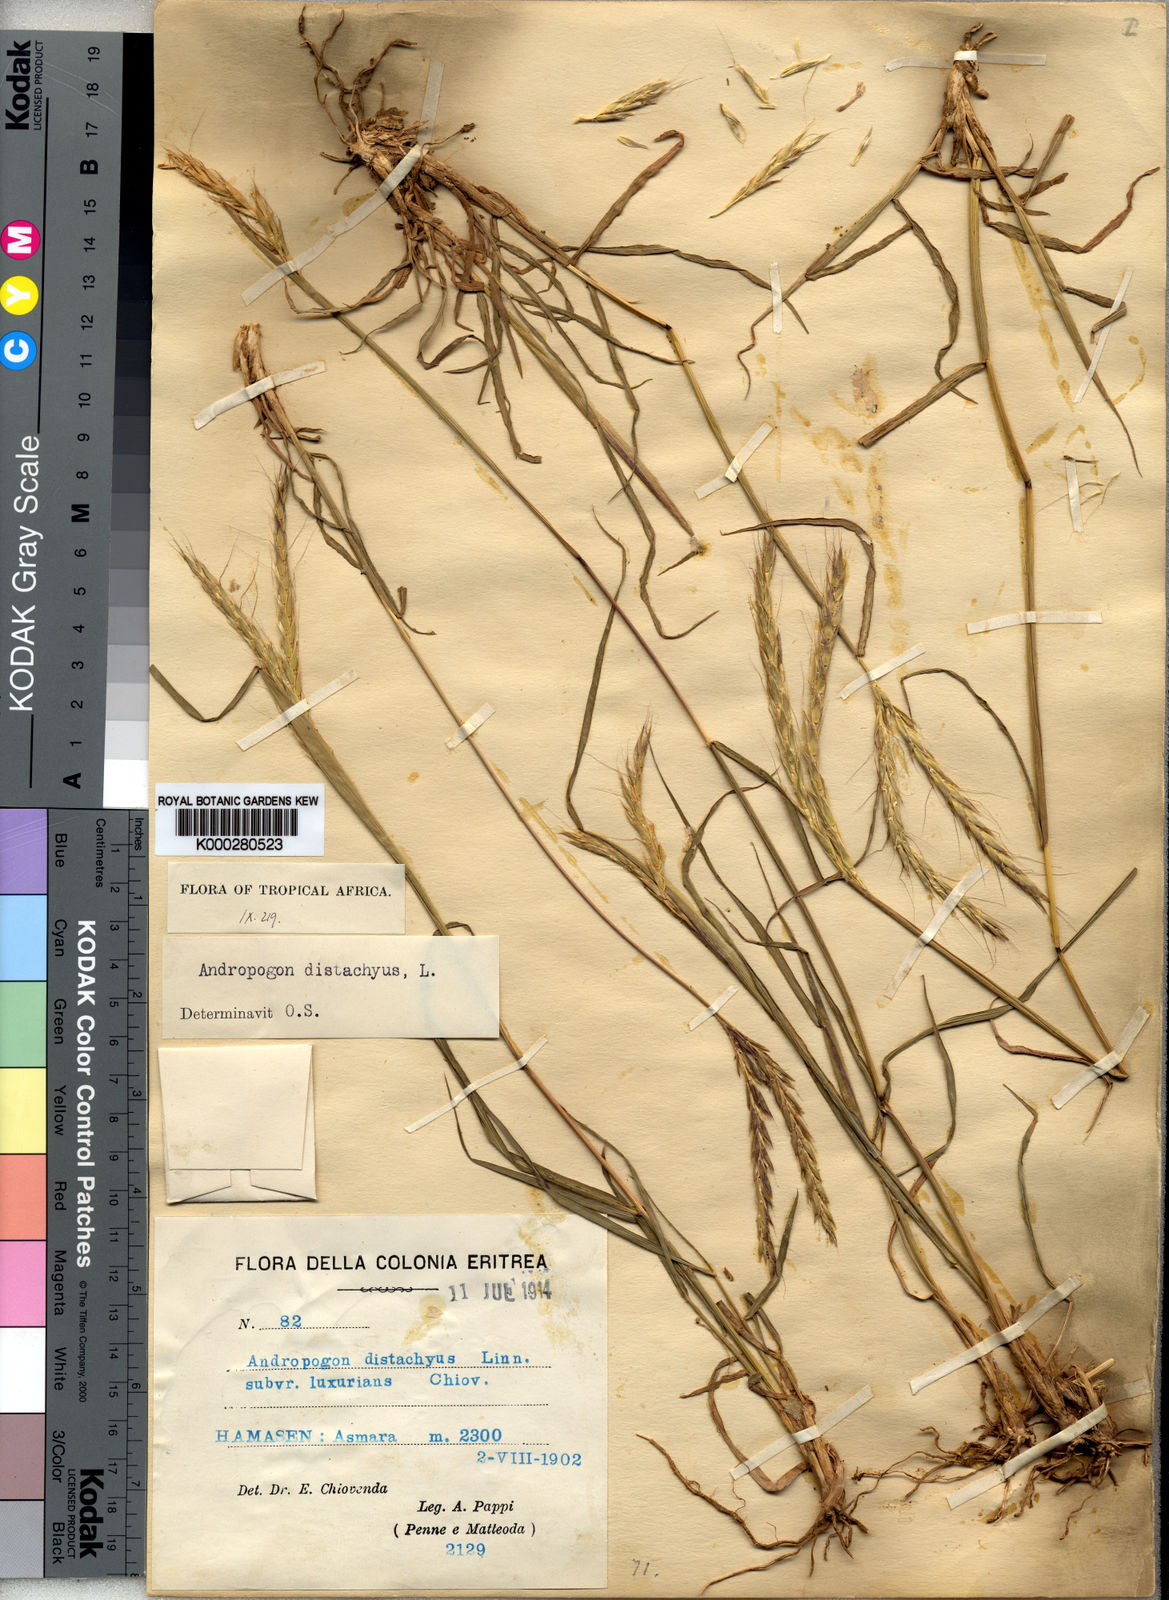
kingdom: Plantae
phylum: Tracheophyta
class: Liliopsida
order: Poales
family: Poaceae
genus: Andropogon
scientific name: Andropogon distachyos
